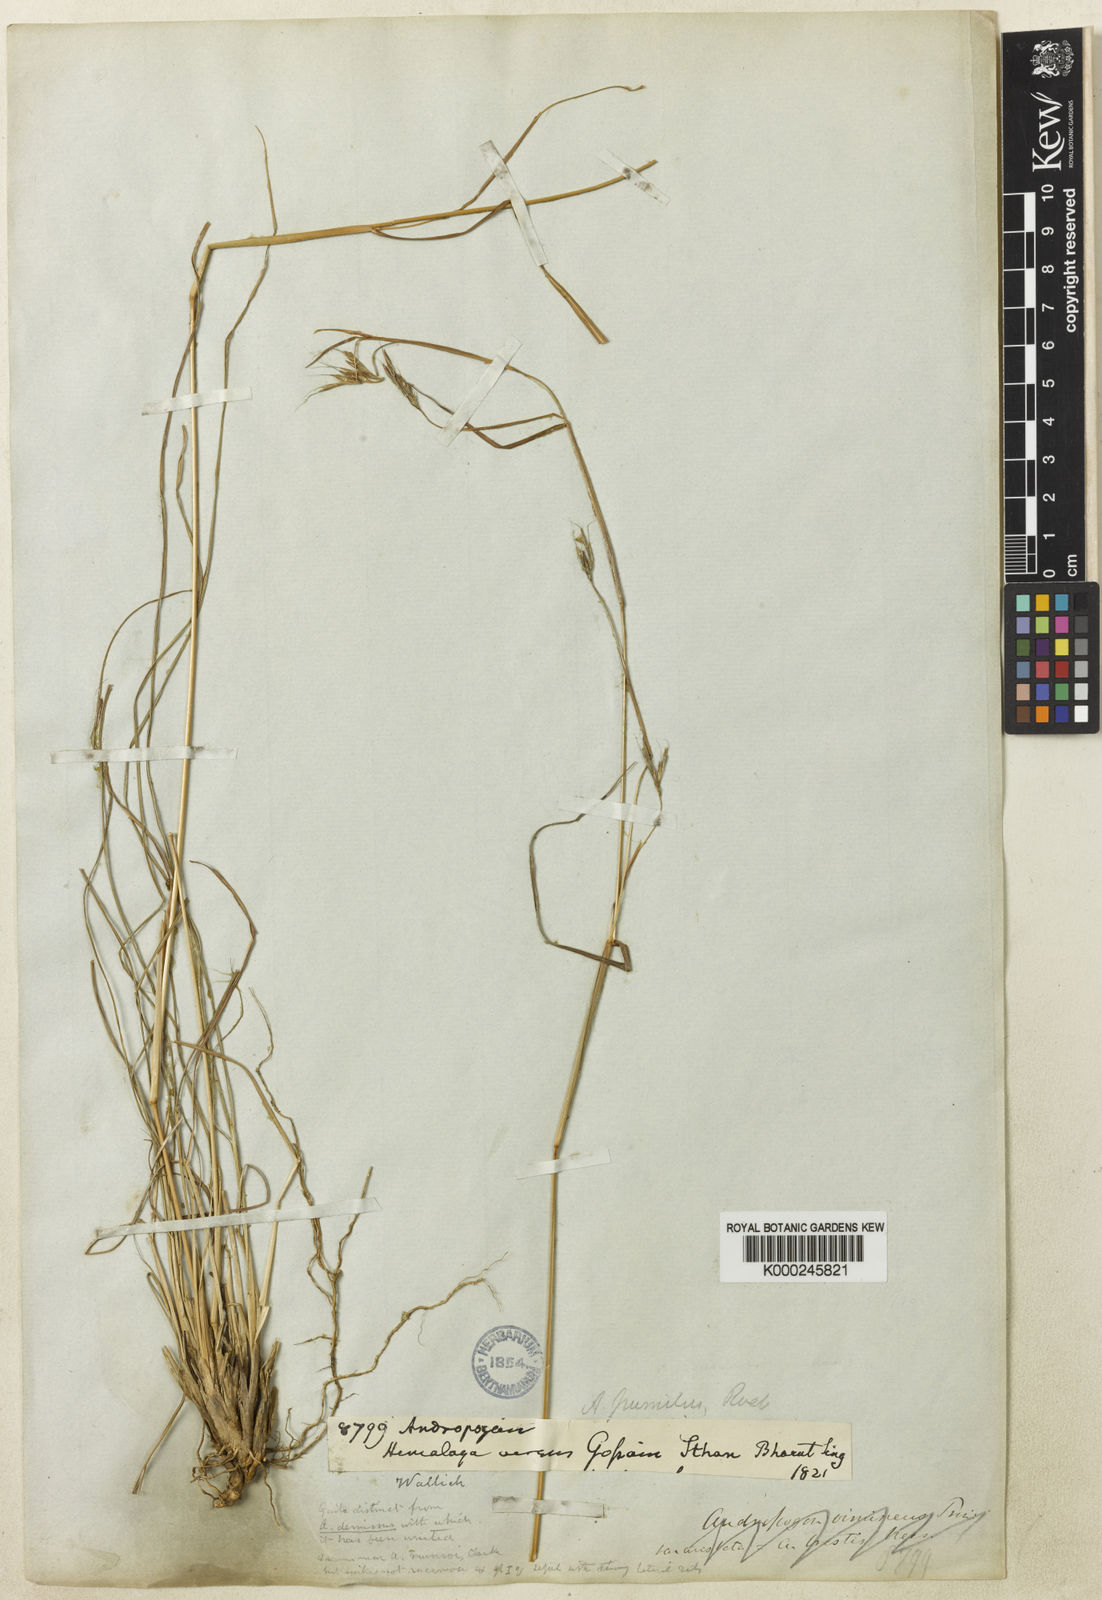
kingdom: Plantae
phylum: Tracheophyta
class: Liliopsida
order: Poales
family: Poaceae
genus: Andropogon
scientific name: Andropogon pumilus
